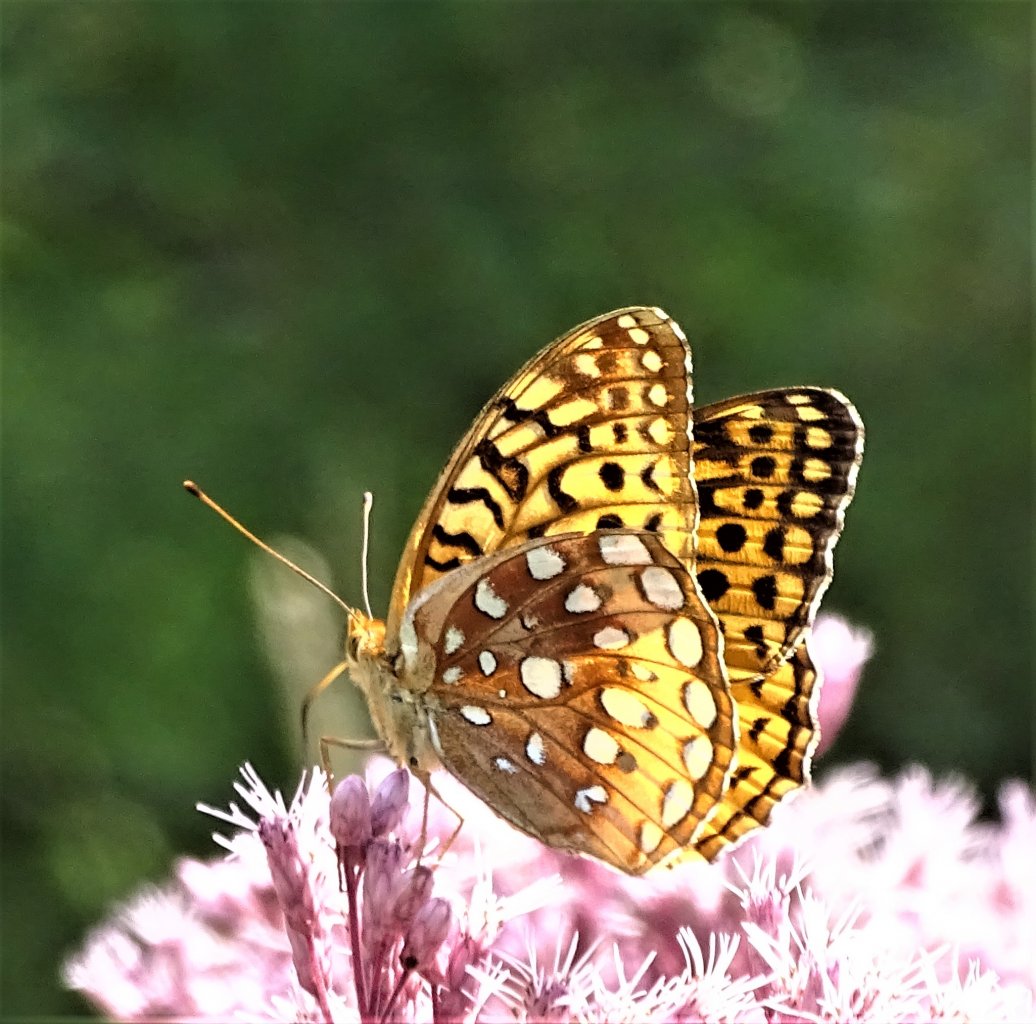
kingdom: Animalia
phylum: Arthropoda
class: Insecta
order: Lepidoptera
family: Nymphalidae
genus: Speyeria
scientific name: Speyeria cybele
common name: Great Spangled Fritillary
